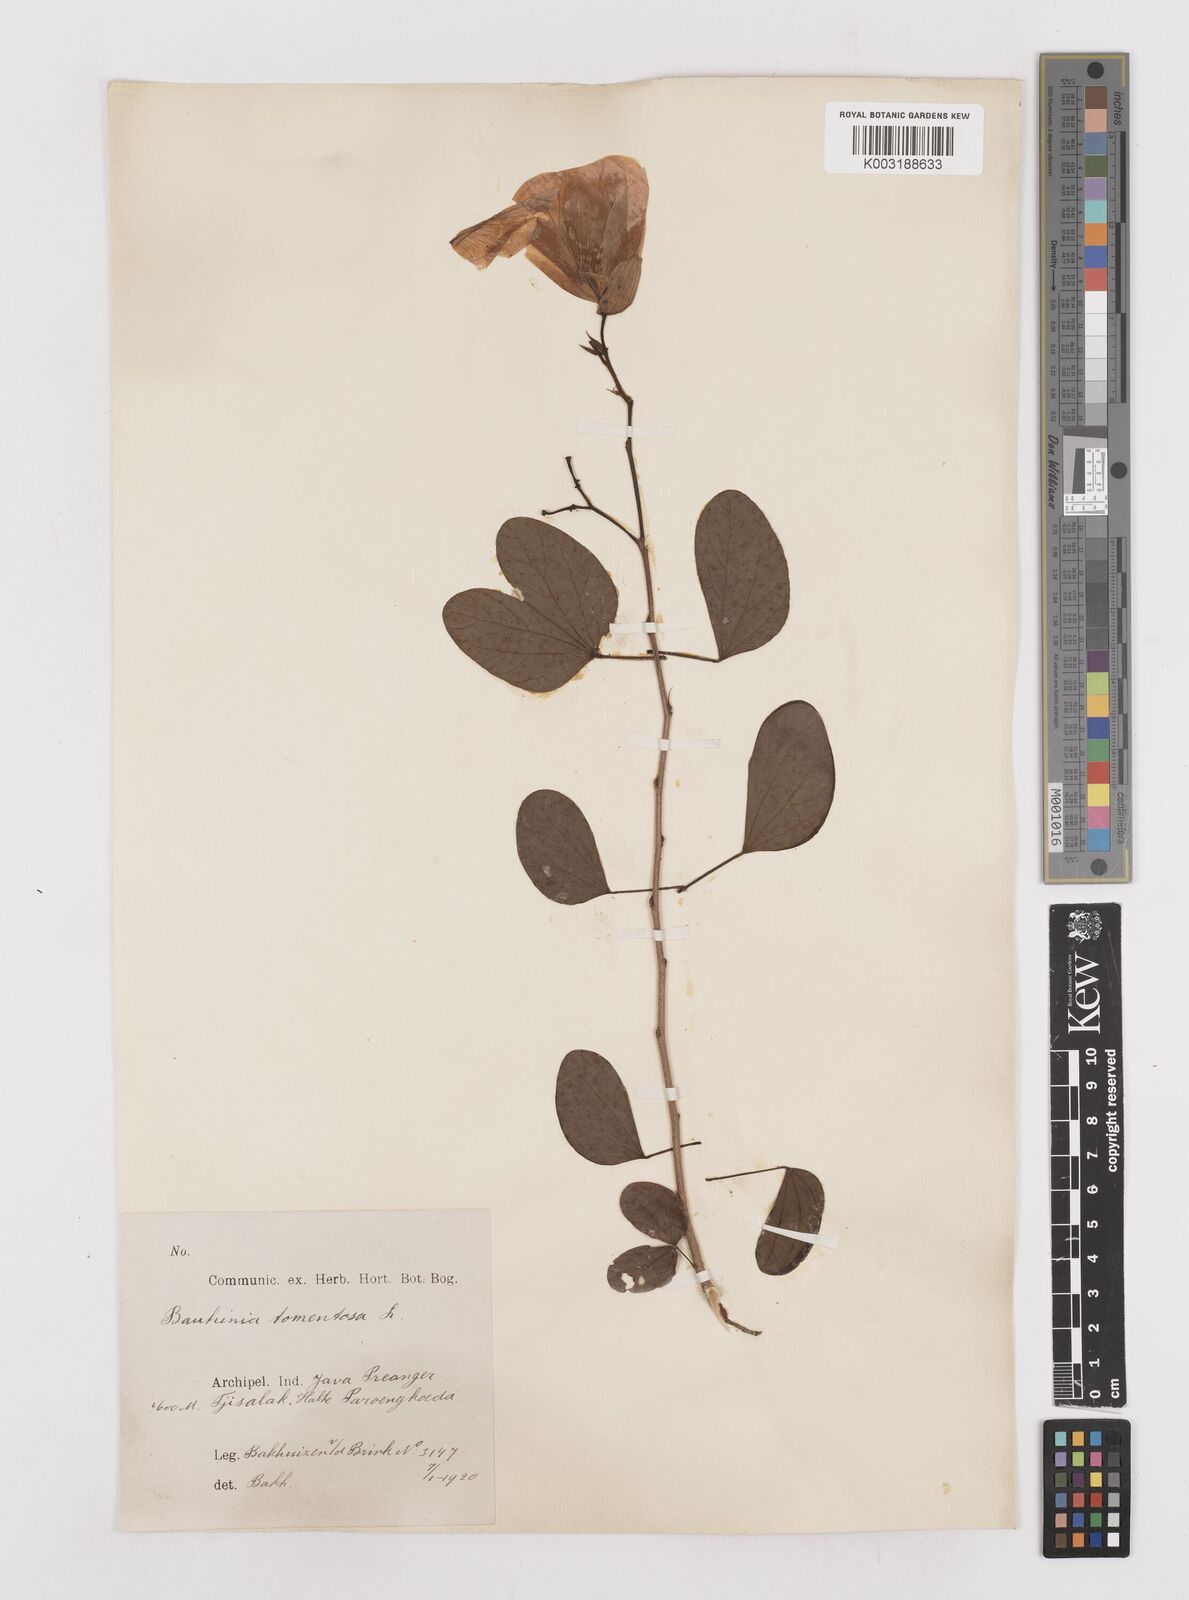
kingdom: Plantae
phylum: Tracheophyta
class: Magnoliopsida
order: Fabales
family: Fabaceae
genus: Bauhinia
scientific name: Bauhinia tomentosa
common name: Bell bauhinia
